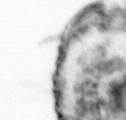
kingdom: Animalia
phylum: Arthropoda
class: Copepoda
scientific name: Copepoda
